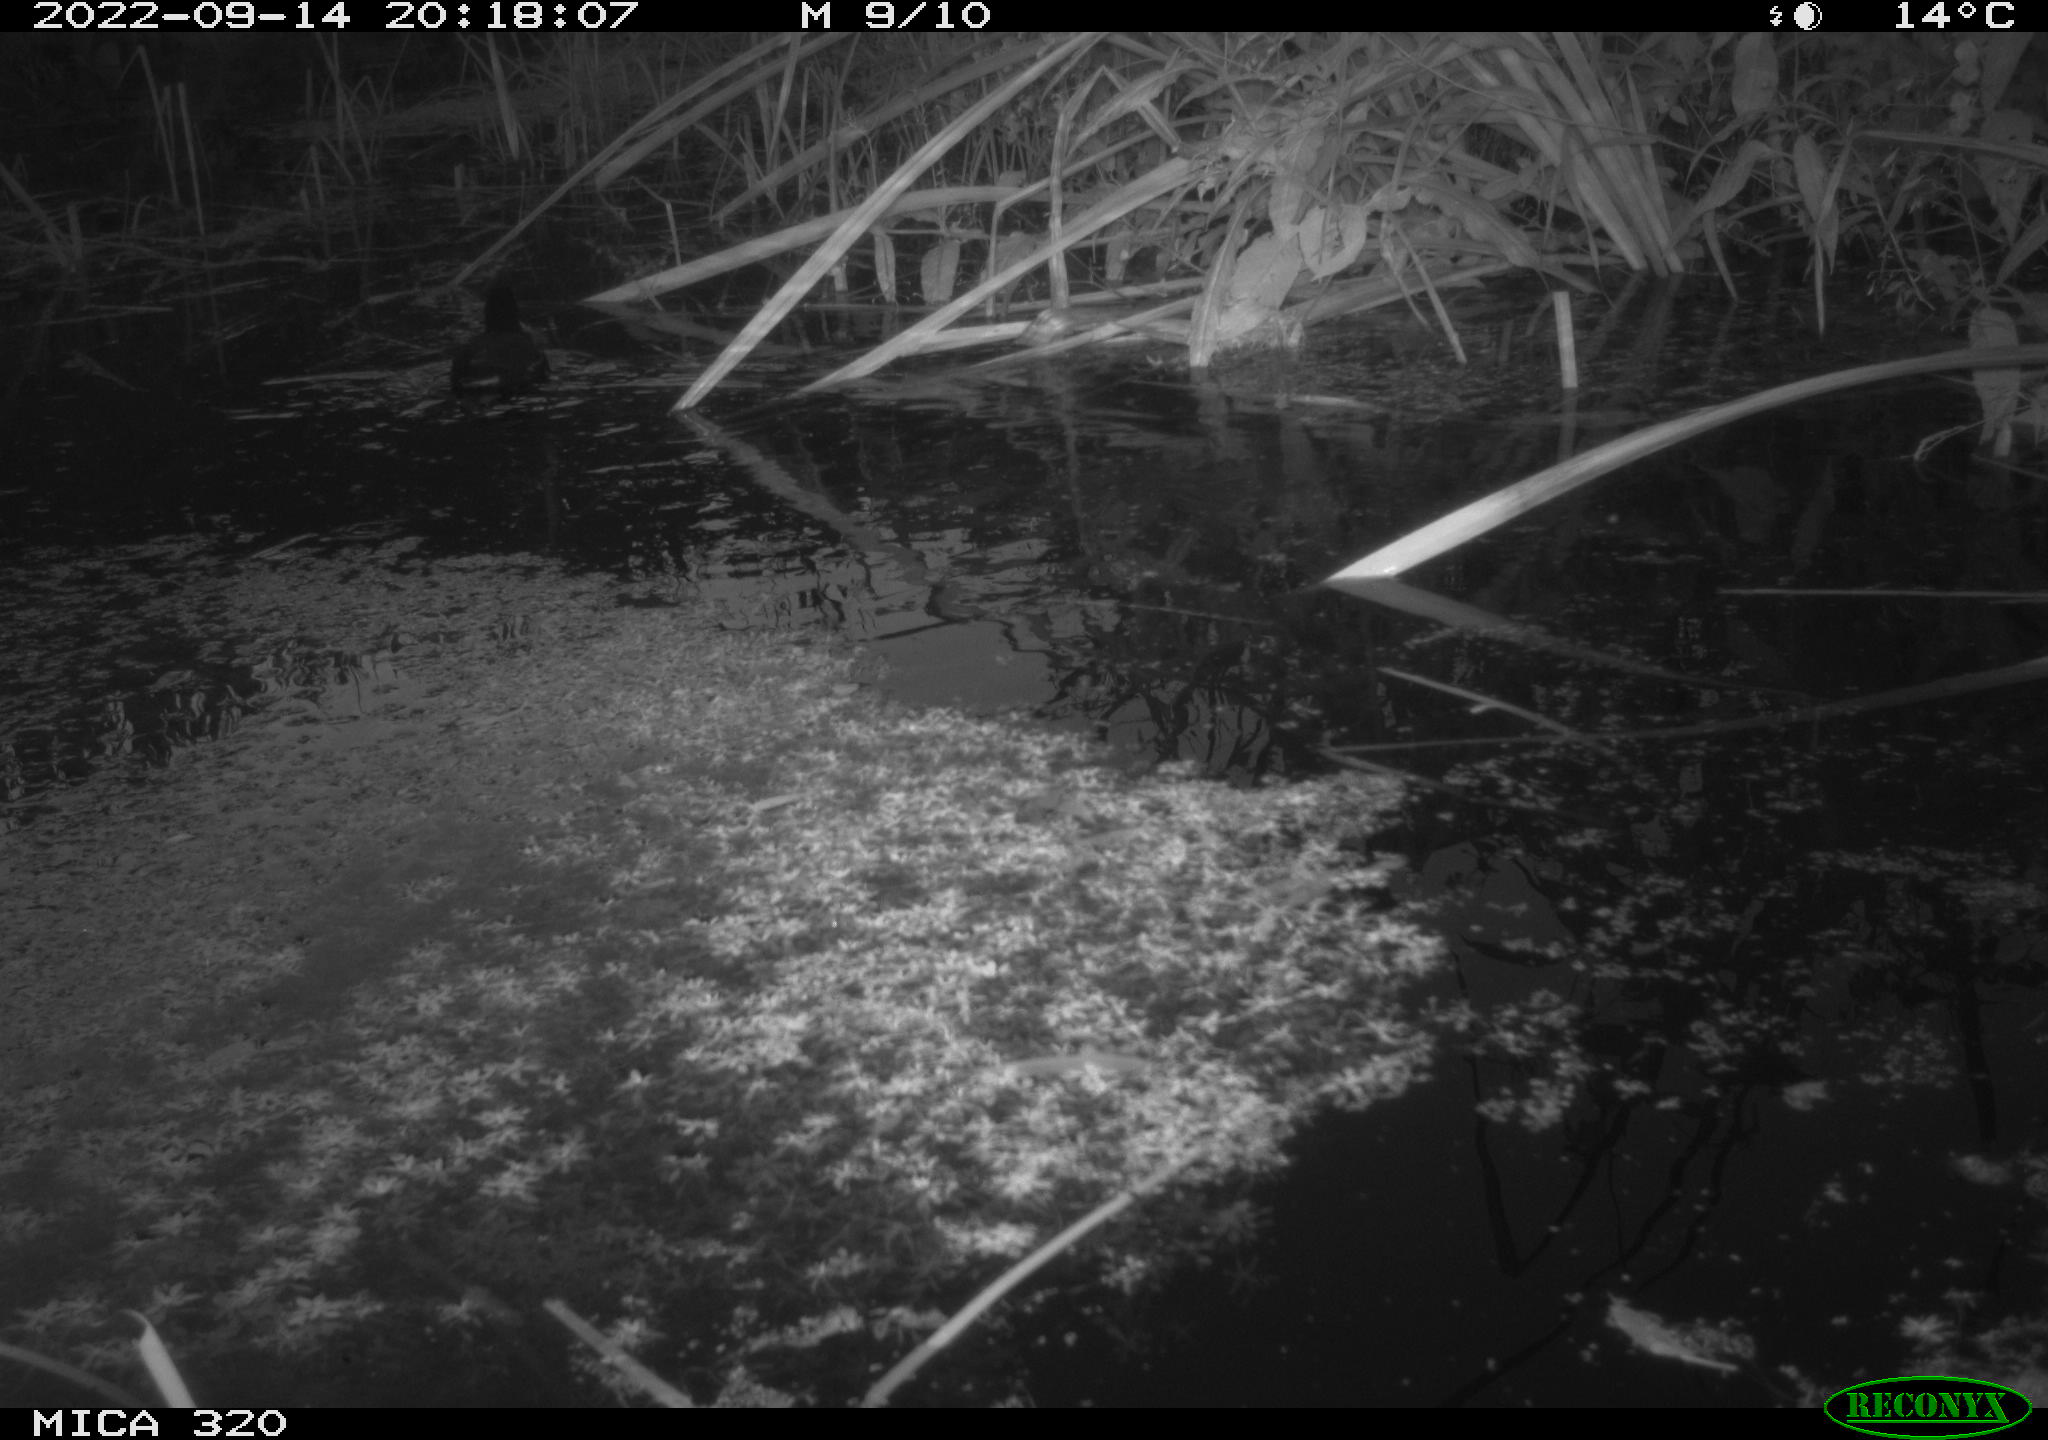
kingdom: Animalia
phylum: Chordata
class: Aves
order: Gruiformes
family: Rallidae
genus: Gallinula
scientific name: Gallinula chloropus
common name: Common moorhen
